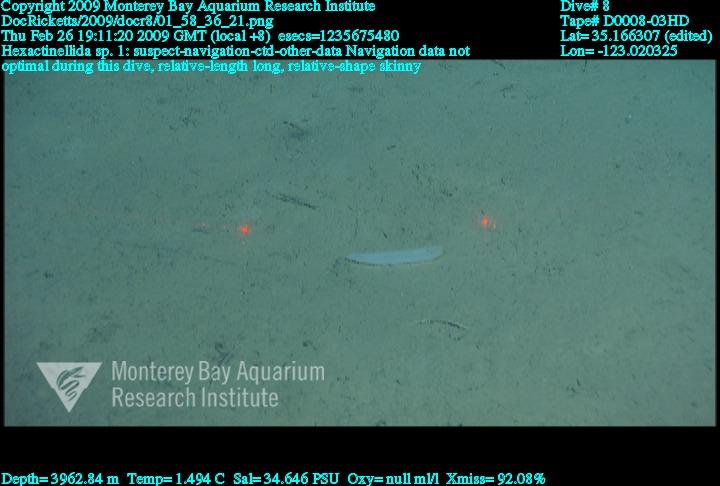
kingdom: Animalia
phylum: Porifera
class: Hexactinellida
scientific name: Hexactinellida
